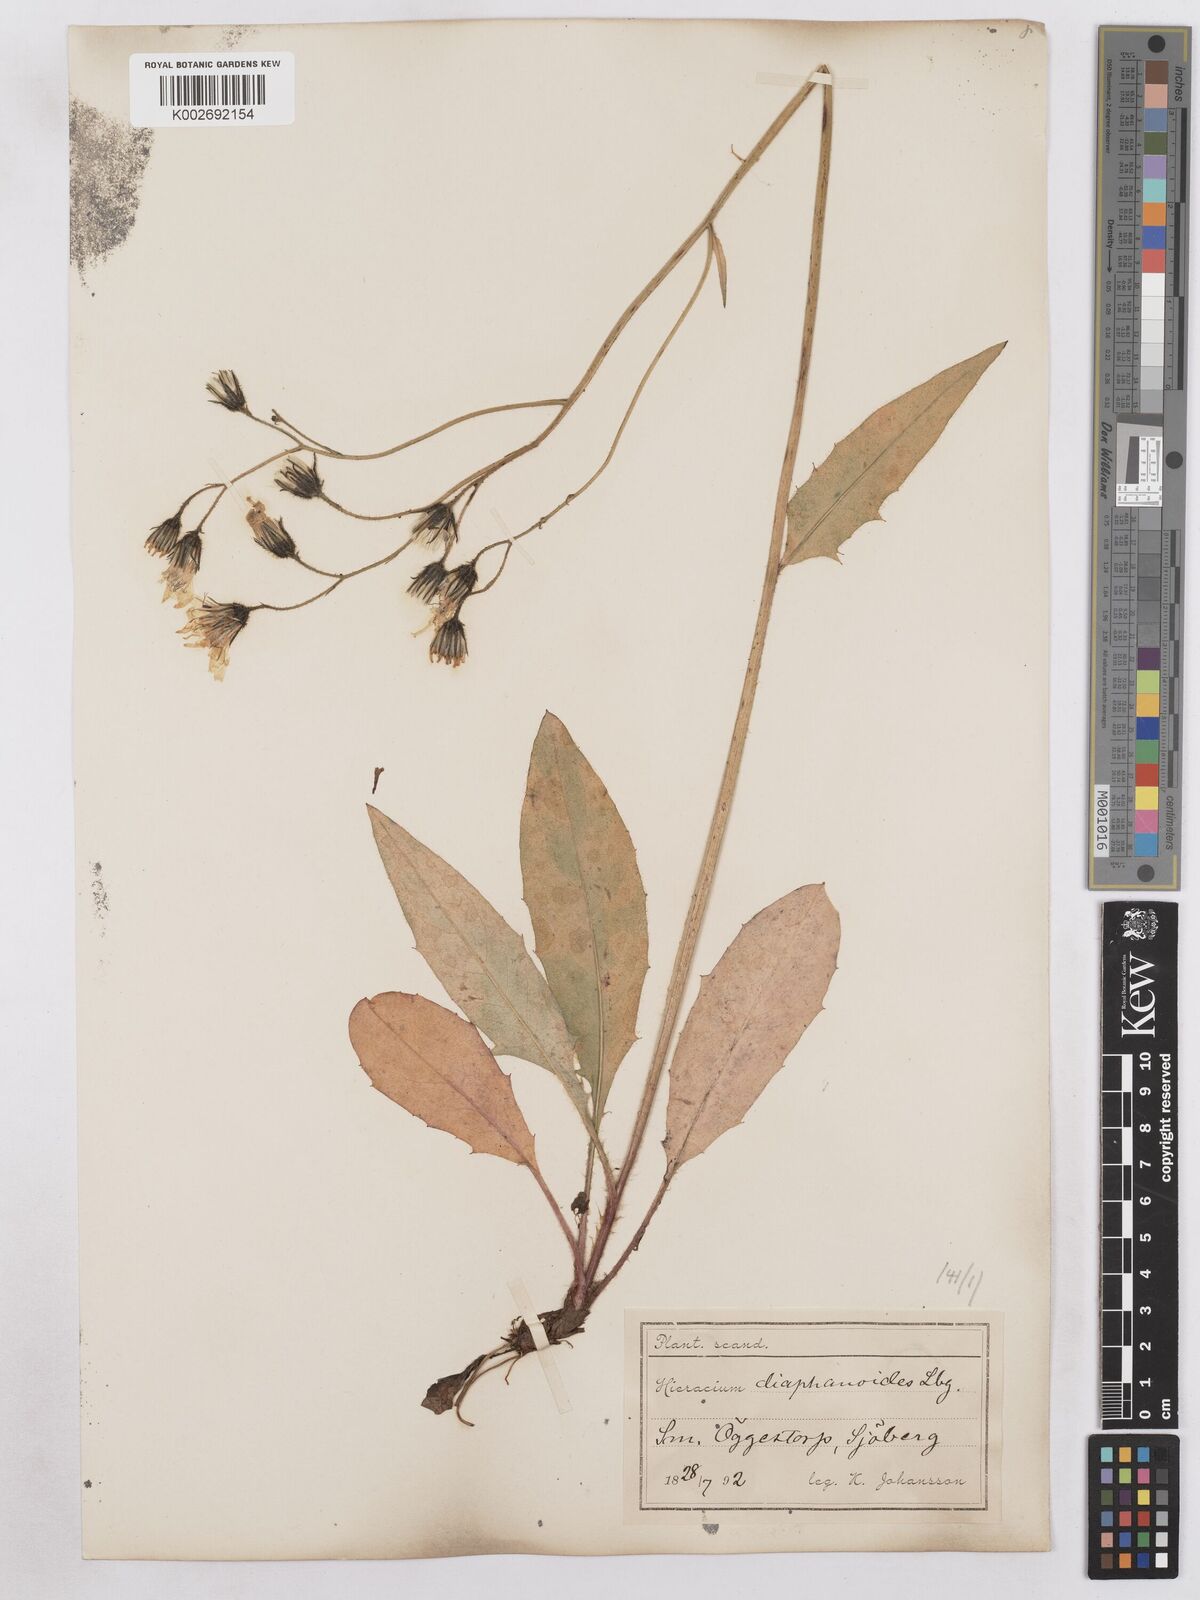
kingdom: Plantae
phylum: Tracheophyta
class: Magnoliopsida
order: Asterales
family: Asteraceae
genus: Hieracium
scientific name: Hieracium diaphanoides
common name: Fine-bracted hawkweed
